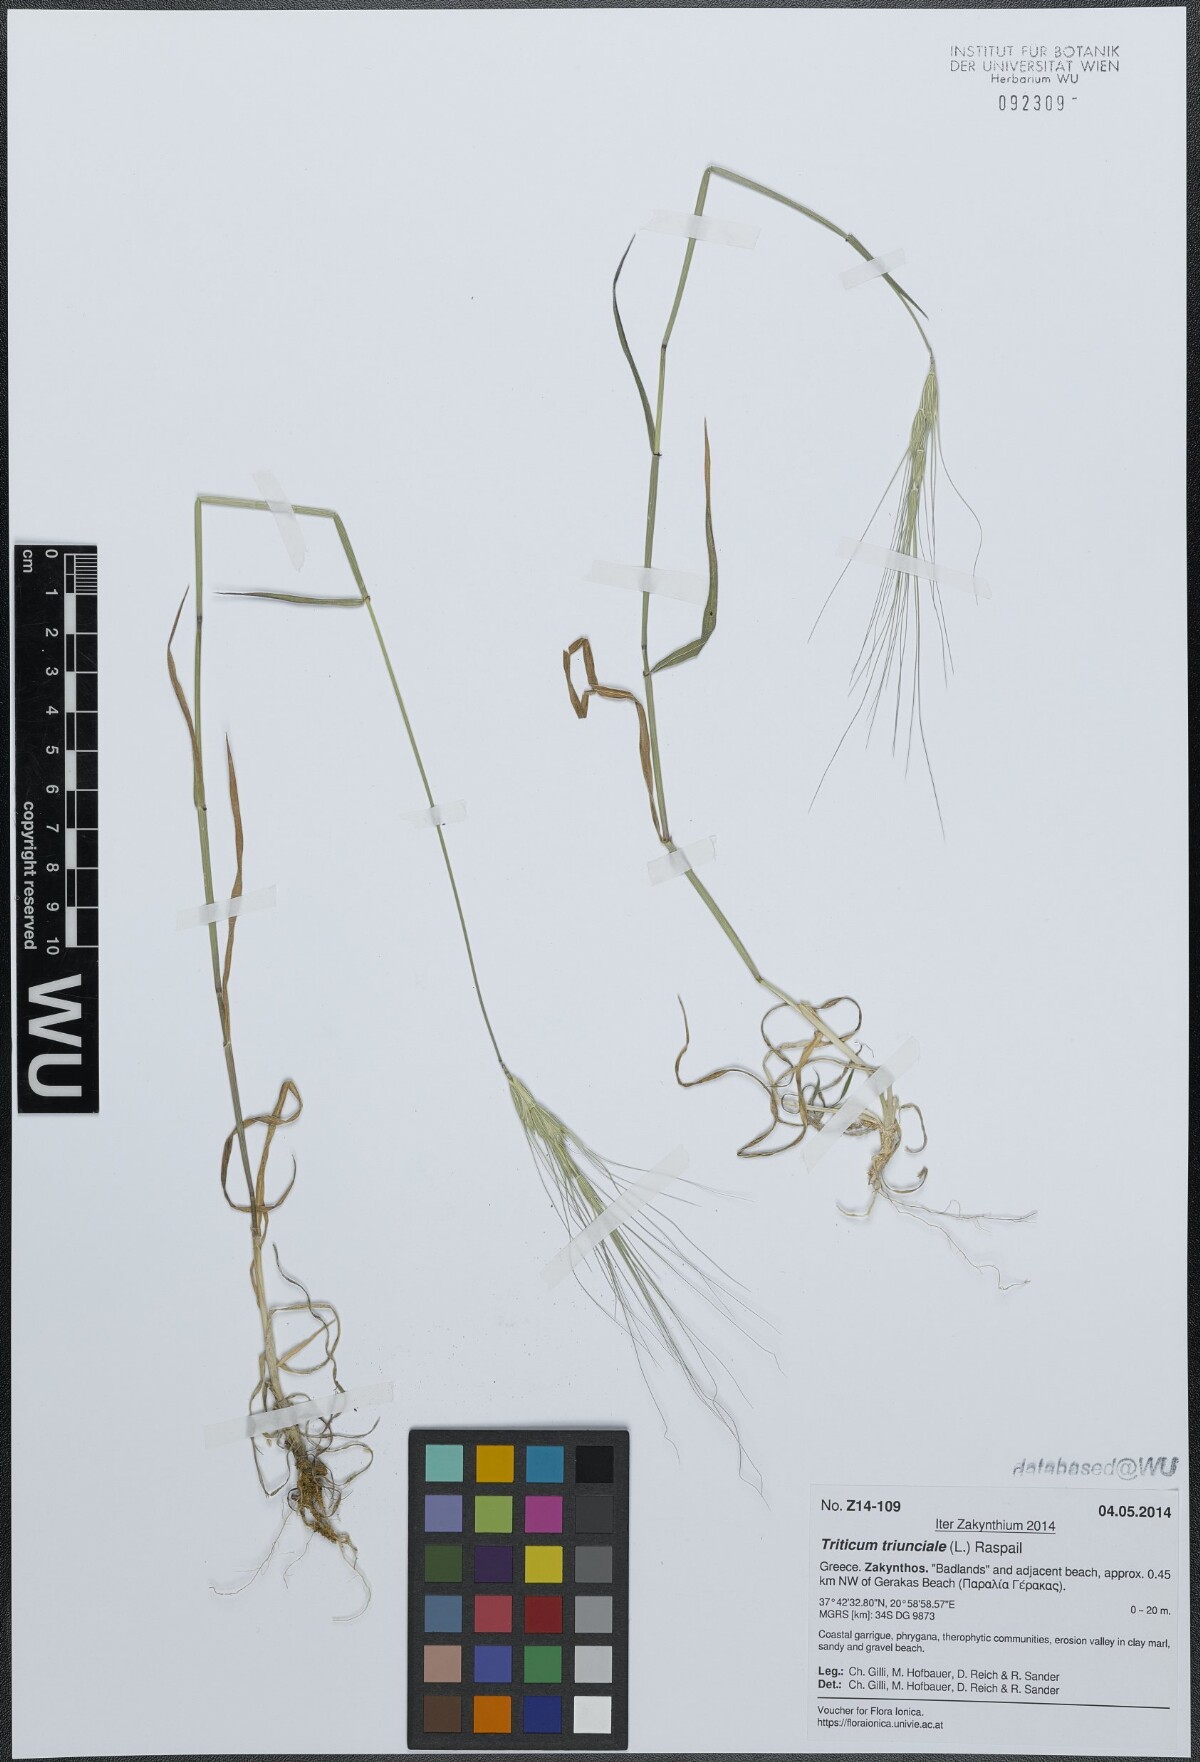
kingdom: Plantae
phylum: Tracheophyta
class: Liliopsida
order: Poales
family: Poaceae
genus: Aegilops
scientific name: Aegilops triuncialis
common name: Barb goat grass
